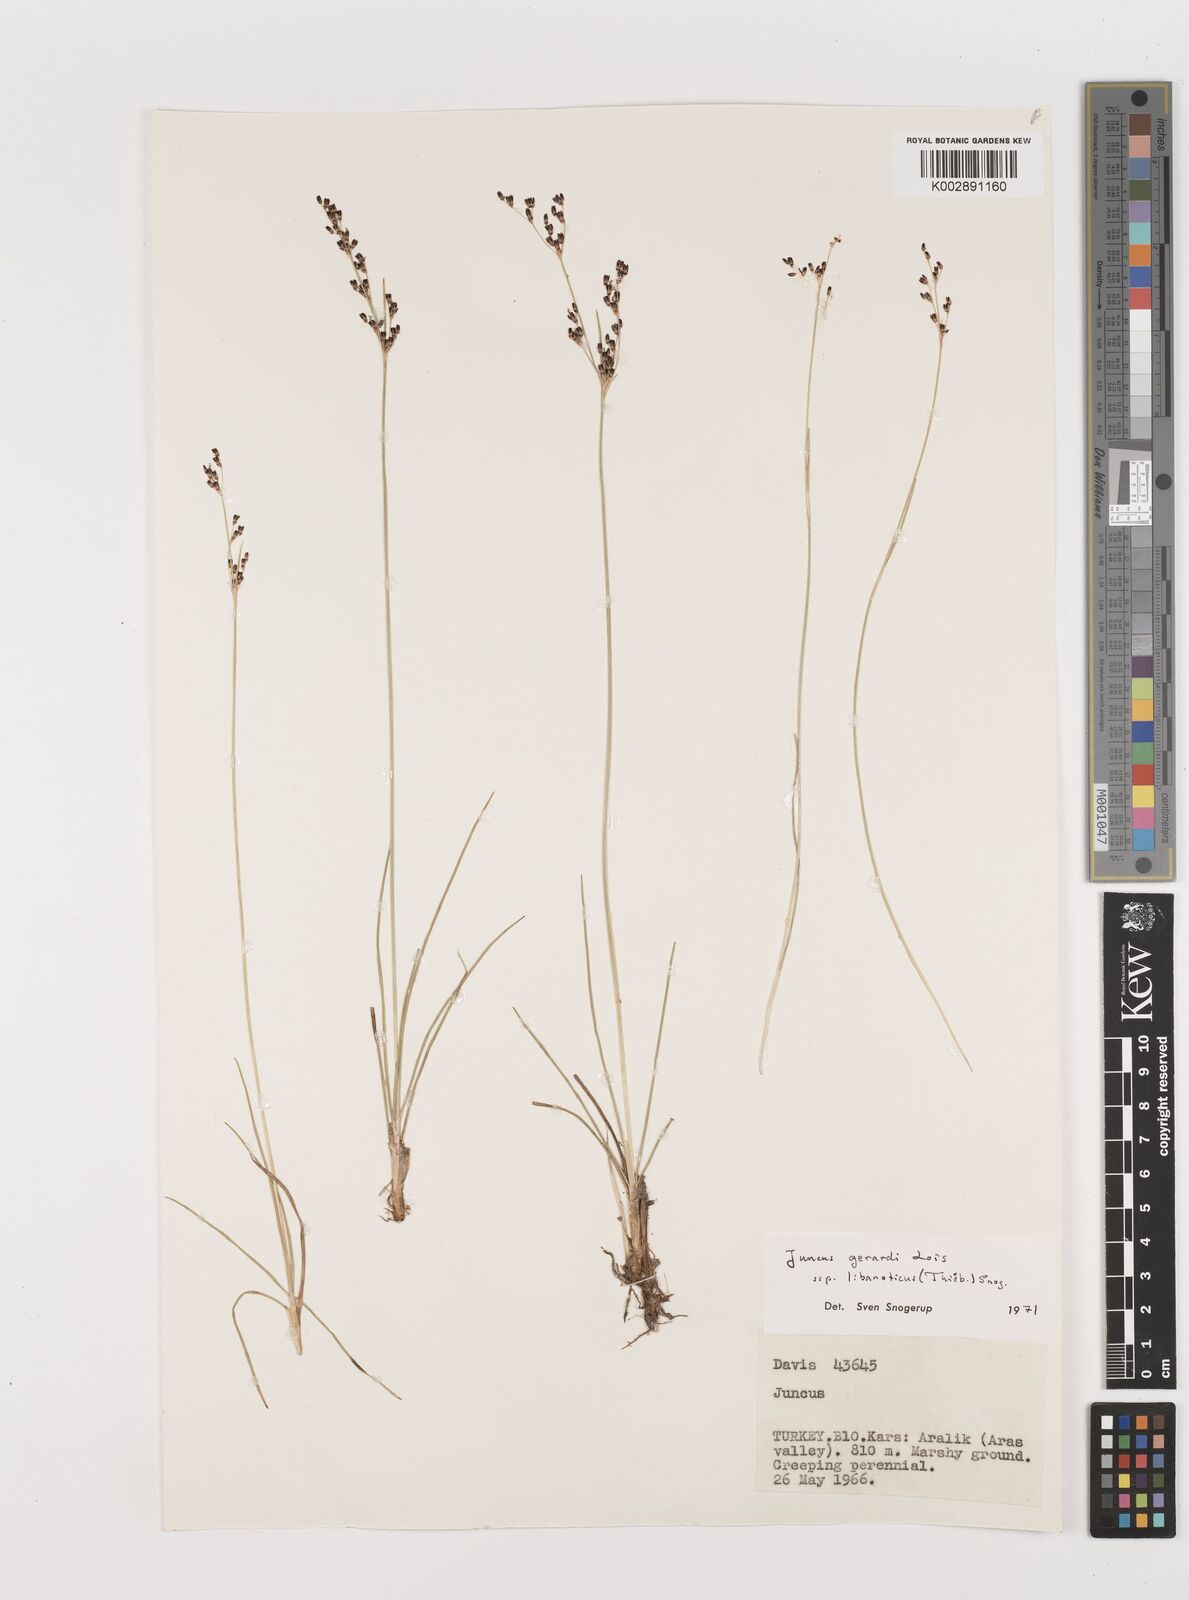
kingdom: Plantae
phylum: Tracheophyta
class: Liliopsida
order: Poales
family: Juncaceae
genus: Juncus
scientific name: Juncus persicus
